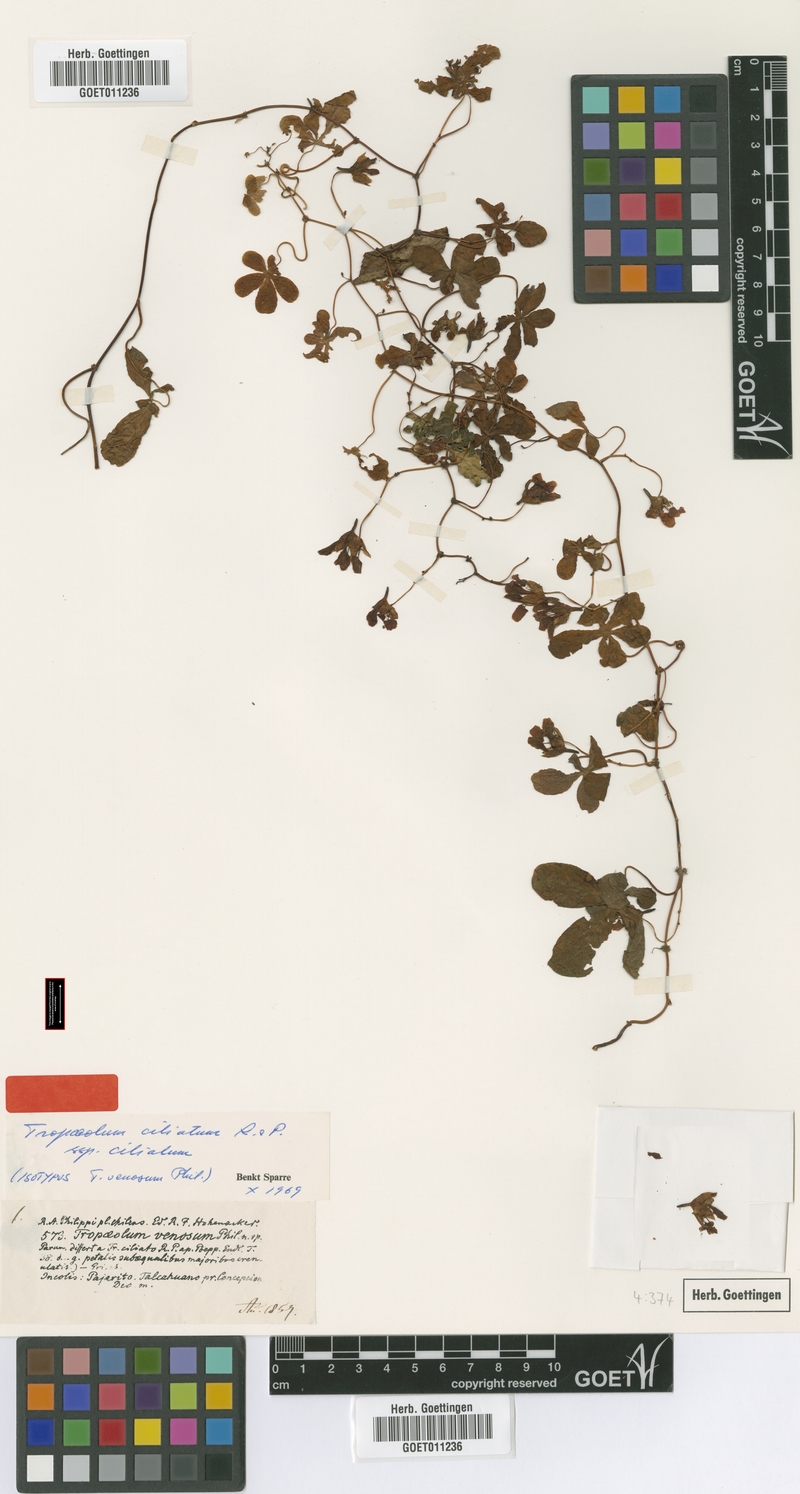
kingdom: Plantae
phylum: Tracheophyta
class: Magnoliopsida
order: Brassicales
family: Tropaeolaceae
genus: Tropaeolum
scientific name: Tropaeolum ciliatum
